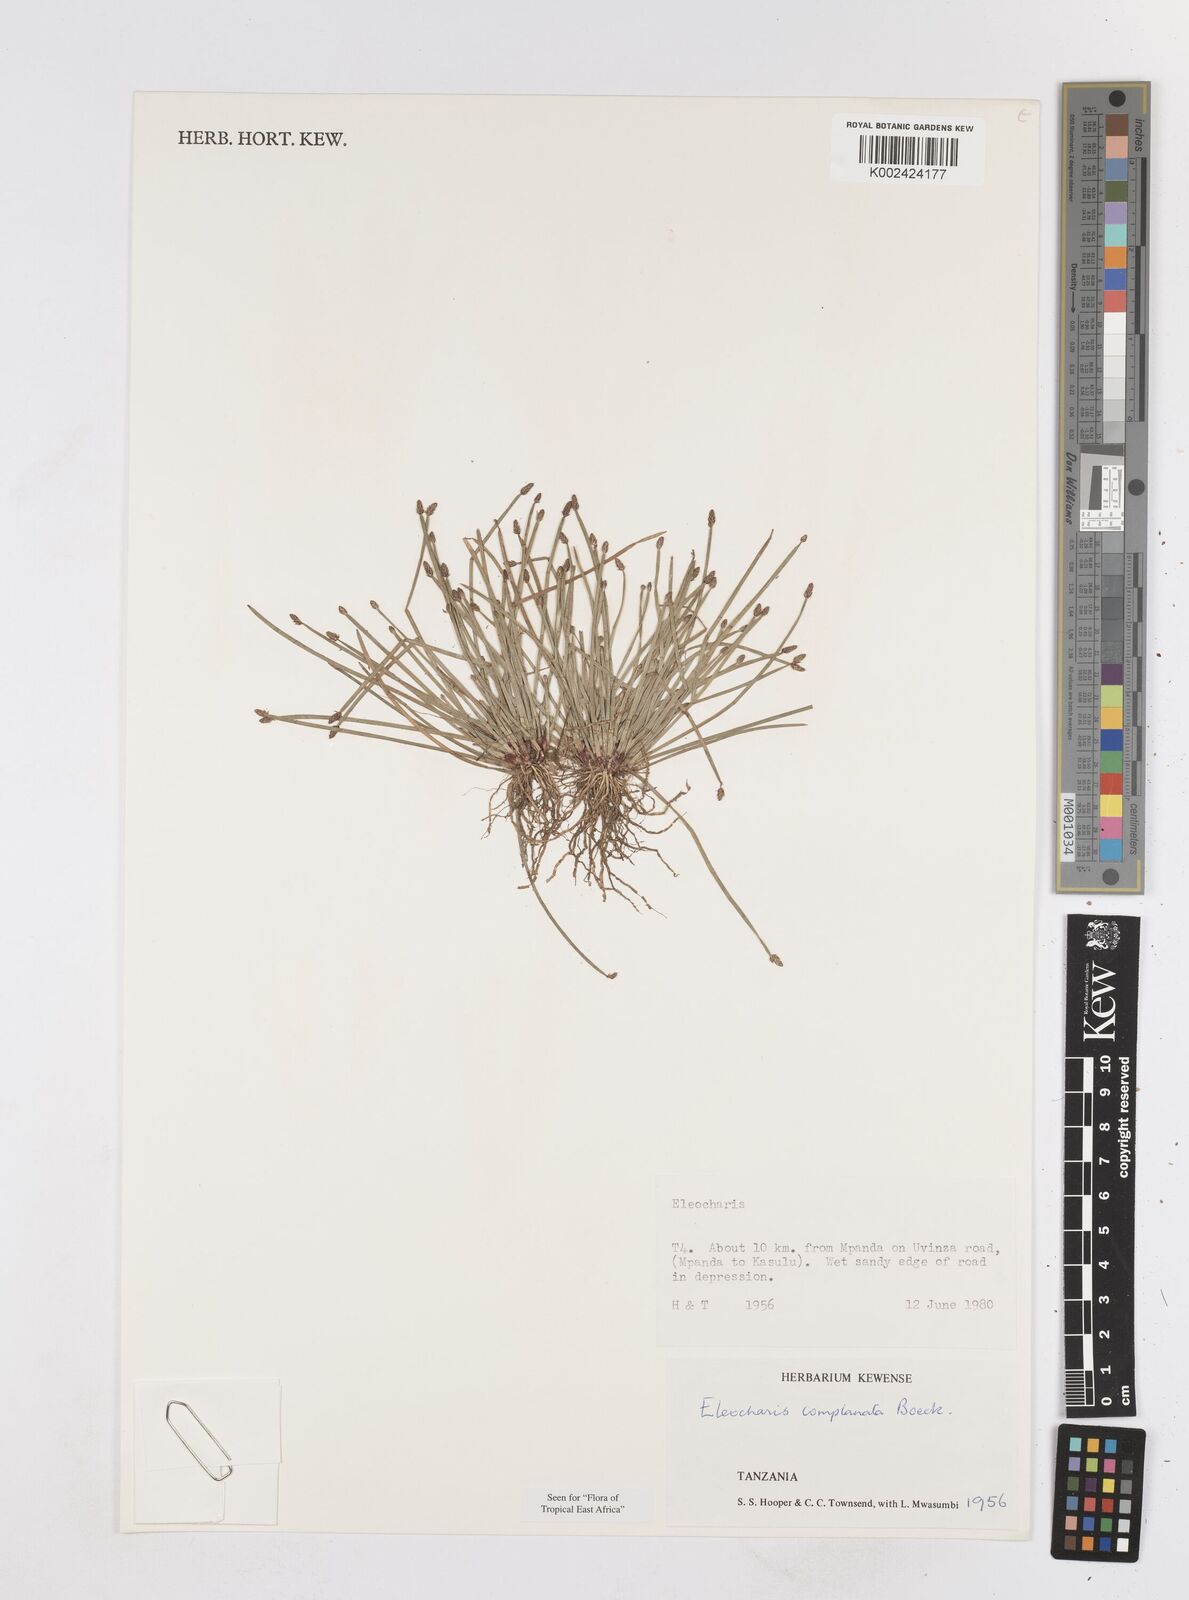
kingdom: Plantae
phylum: Tracheophyta
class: Liliopsida
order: Poales
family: Cyperaceae
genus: Eleocharis
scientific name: Eleocharis complanata
